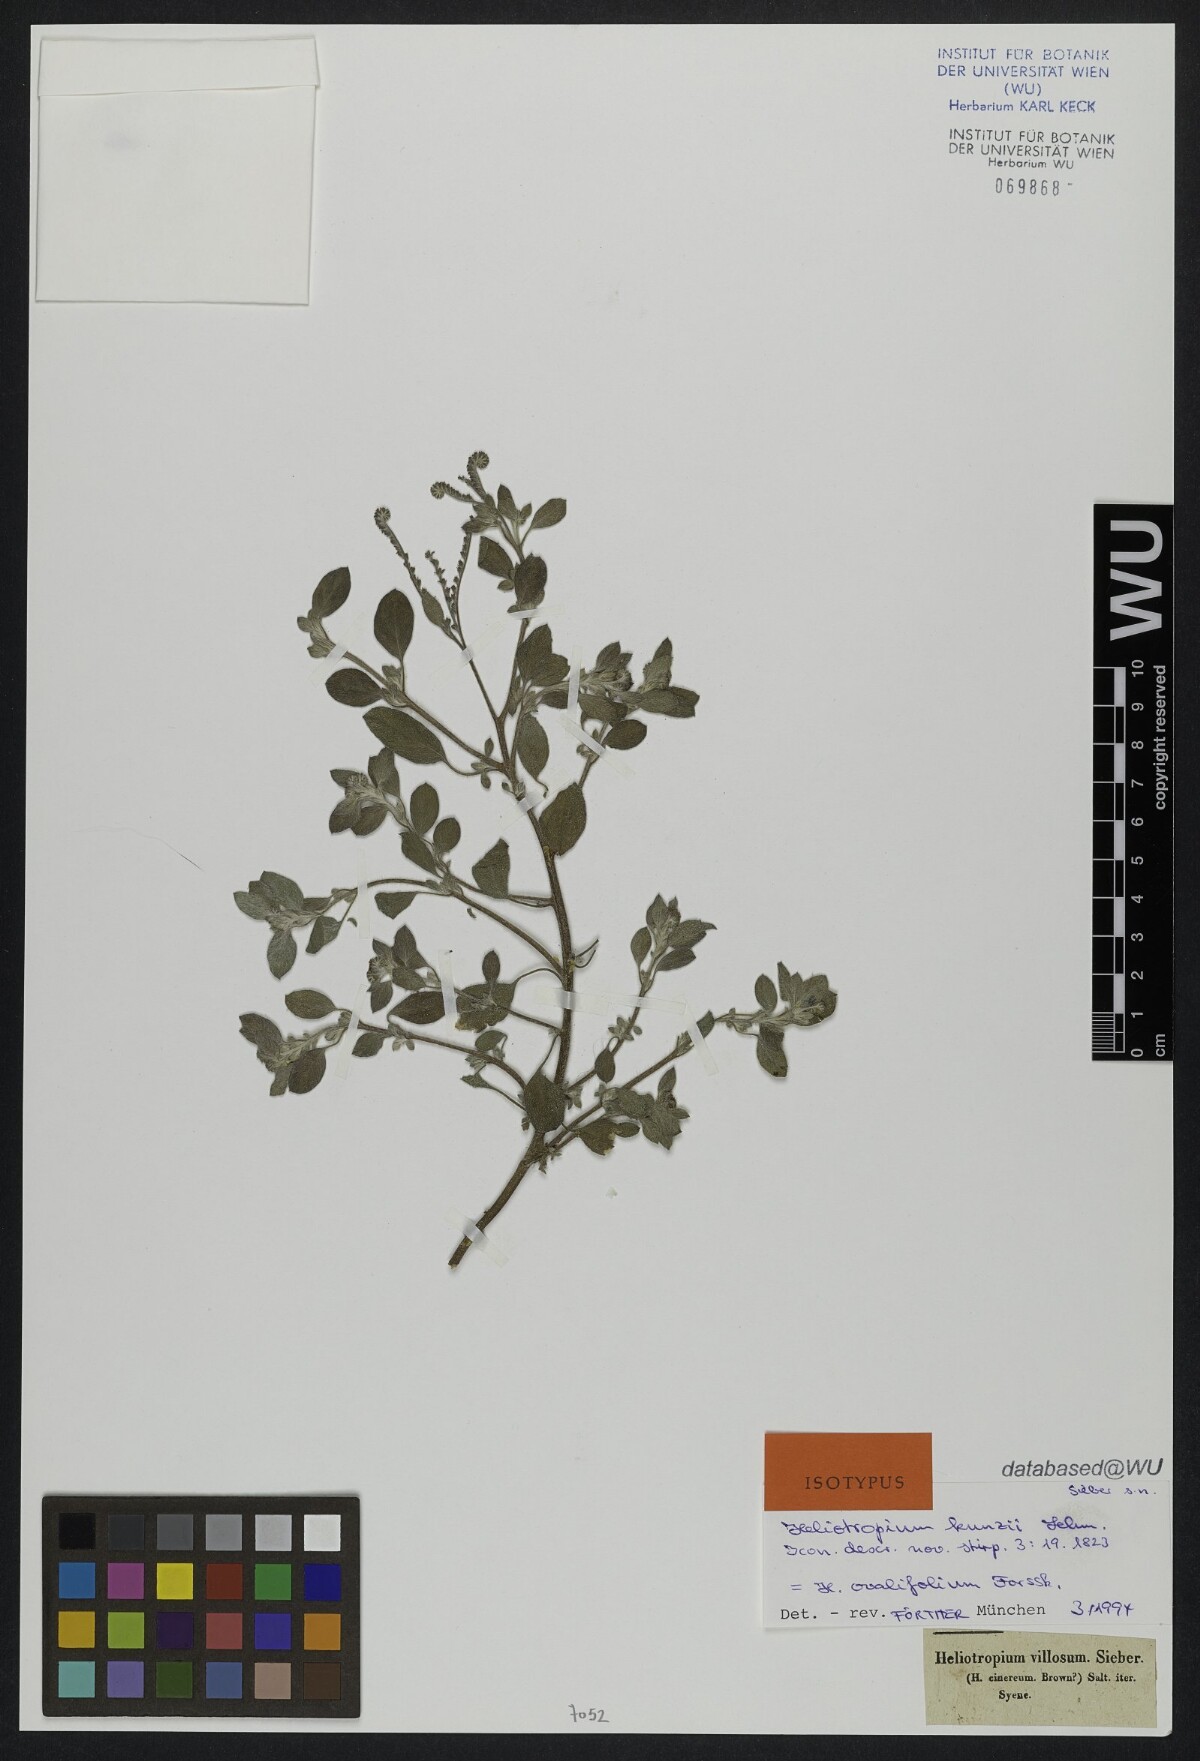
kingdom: Plantae
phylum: Tracheophyta
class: Magnoliopsida
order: Boraginales
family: Heliotropiaceae
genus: Euploca
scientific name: Euploca ovalifolia
